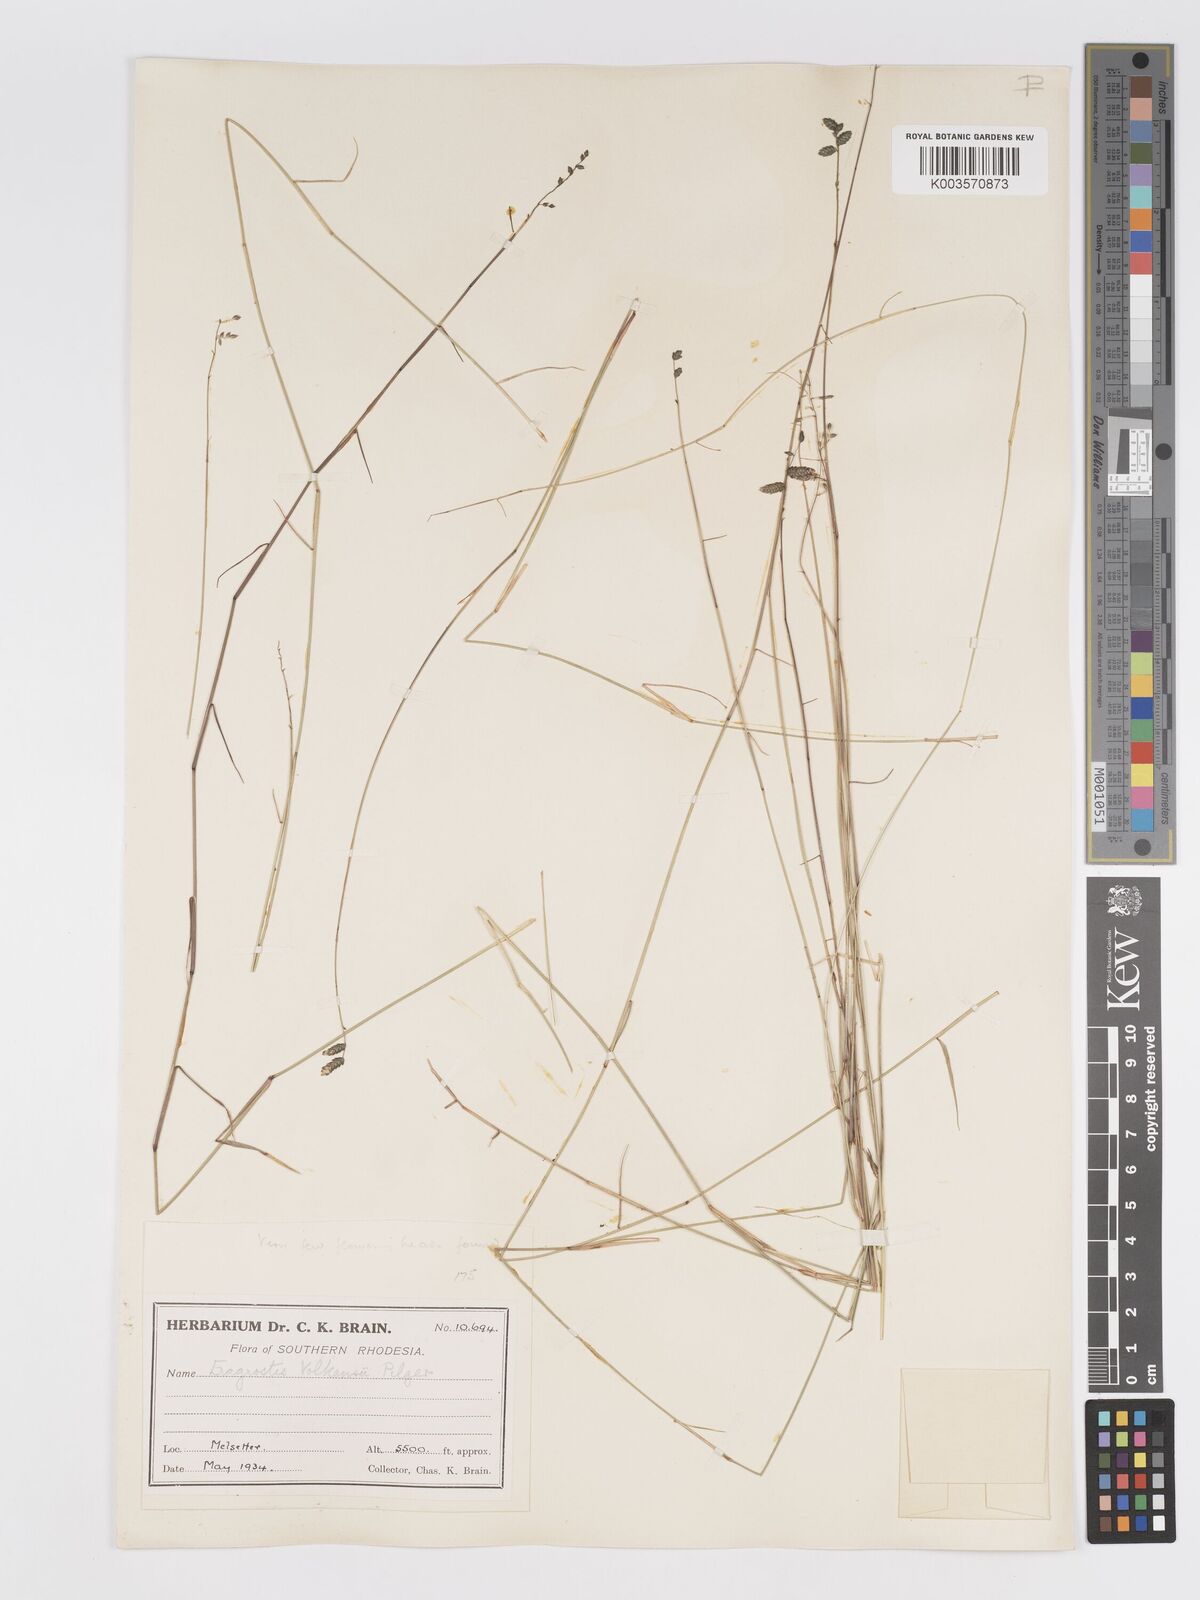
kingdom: Plantae
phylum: Tracheophyta
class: Liliopsida
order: Poales
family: Poaceae
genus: Eragrostis
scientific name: Eragrostis volkensii
